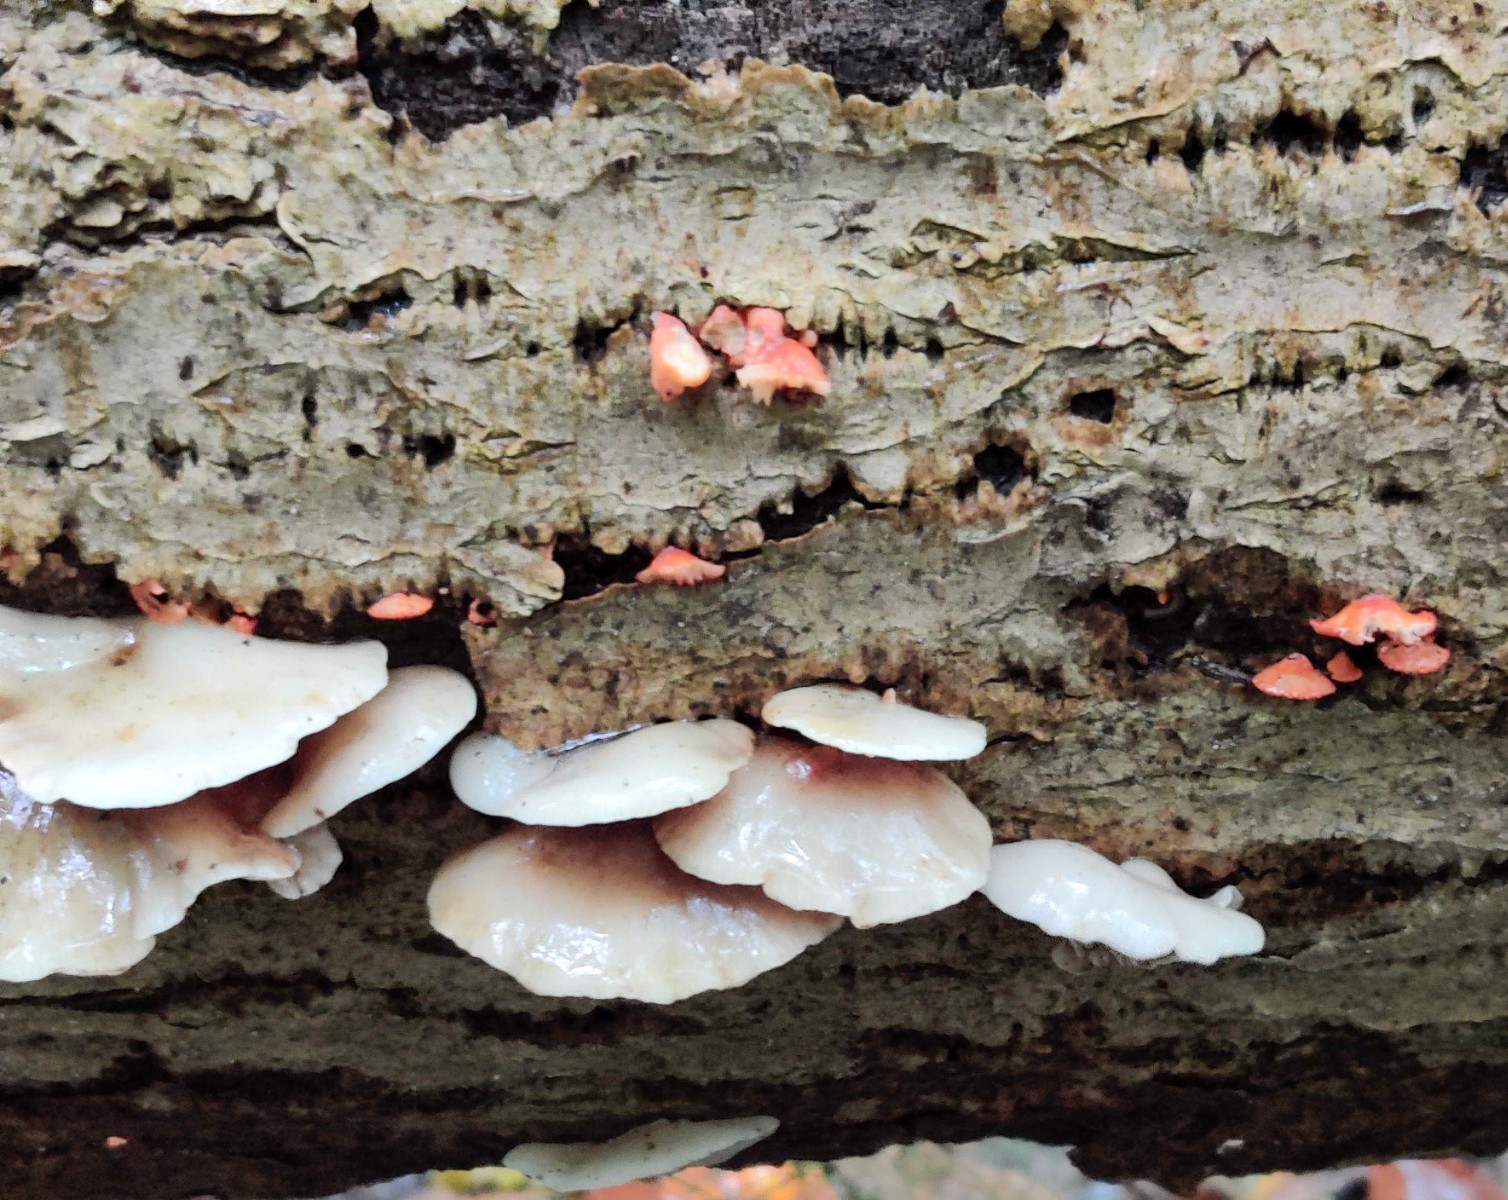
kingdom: Fungi
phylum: Basidiomycota
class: Agaricomycetes
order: Agaricales
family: Crepidotaceae
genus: Crepidotus
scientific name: Crepidotus cinnabarinus
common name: cinnober-muslingesvamp
